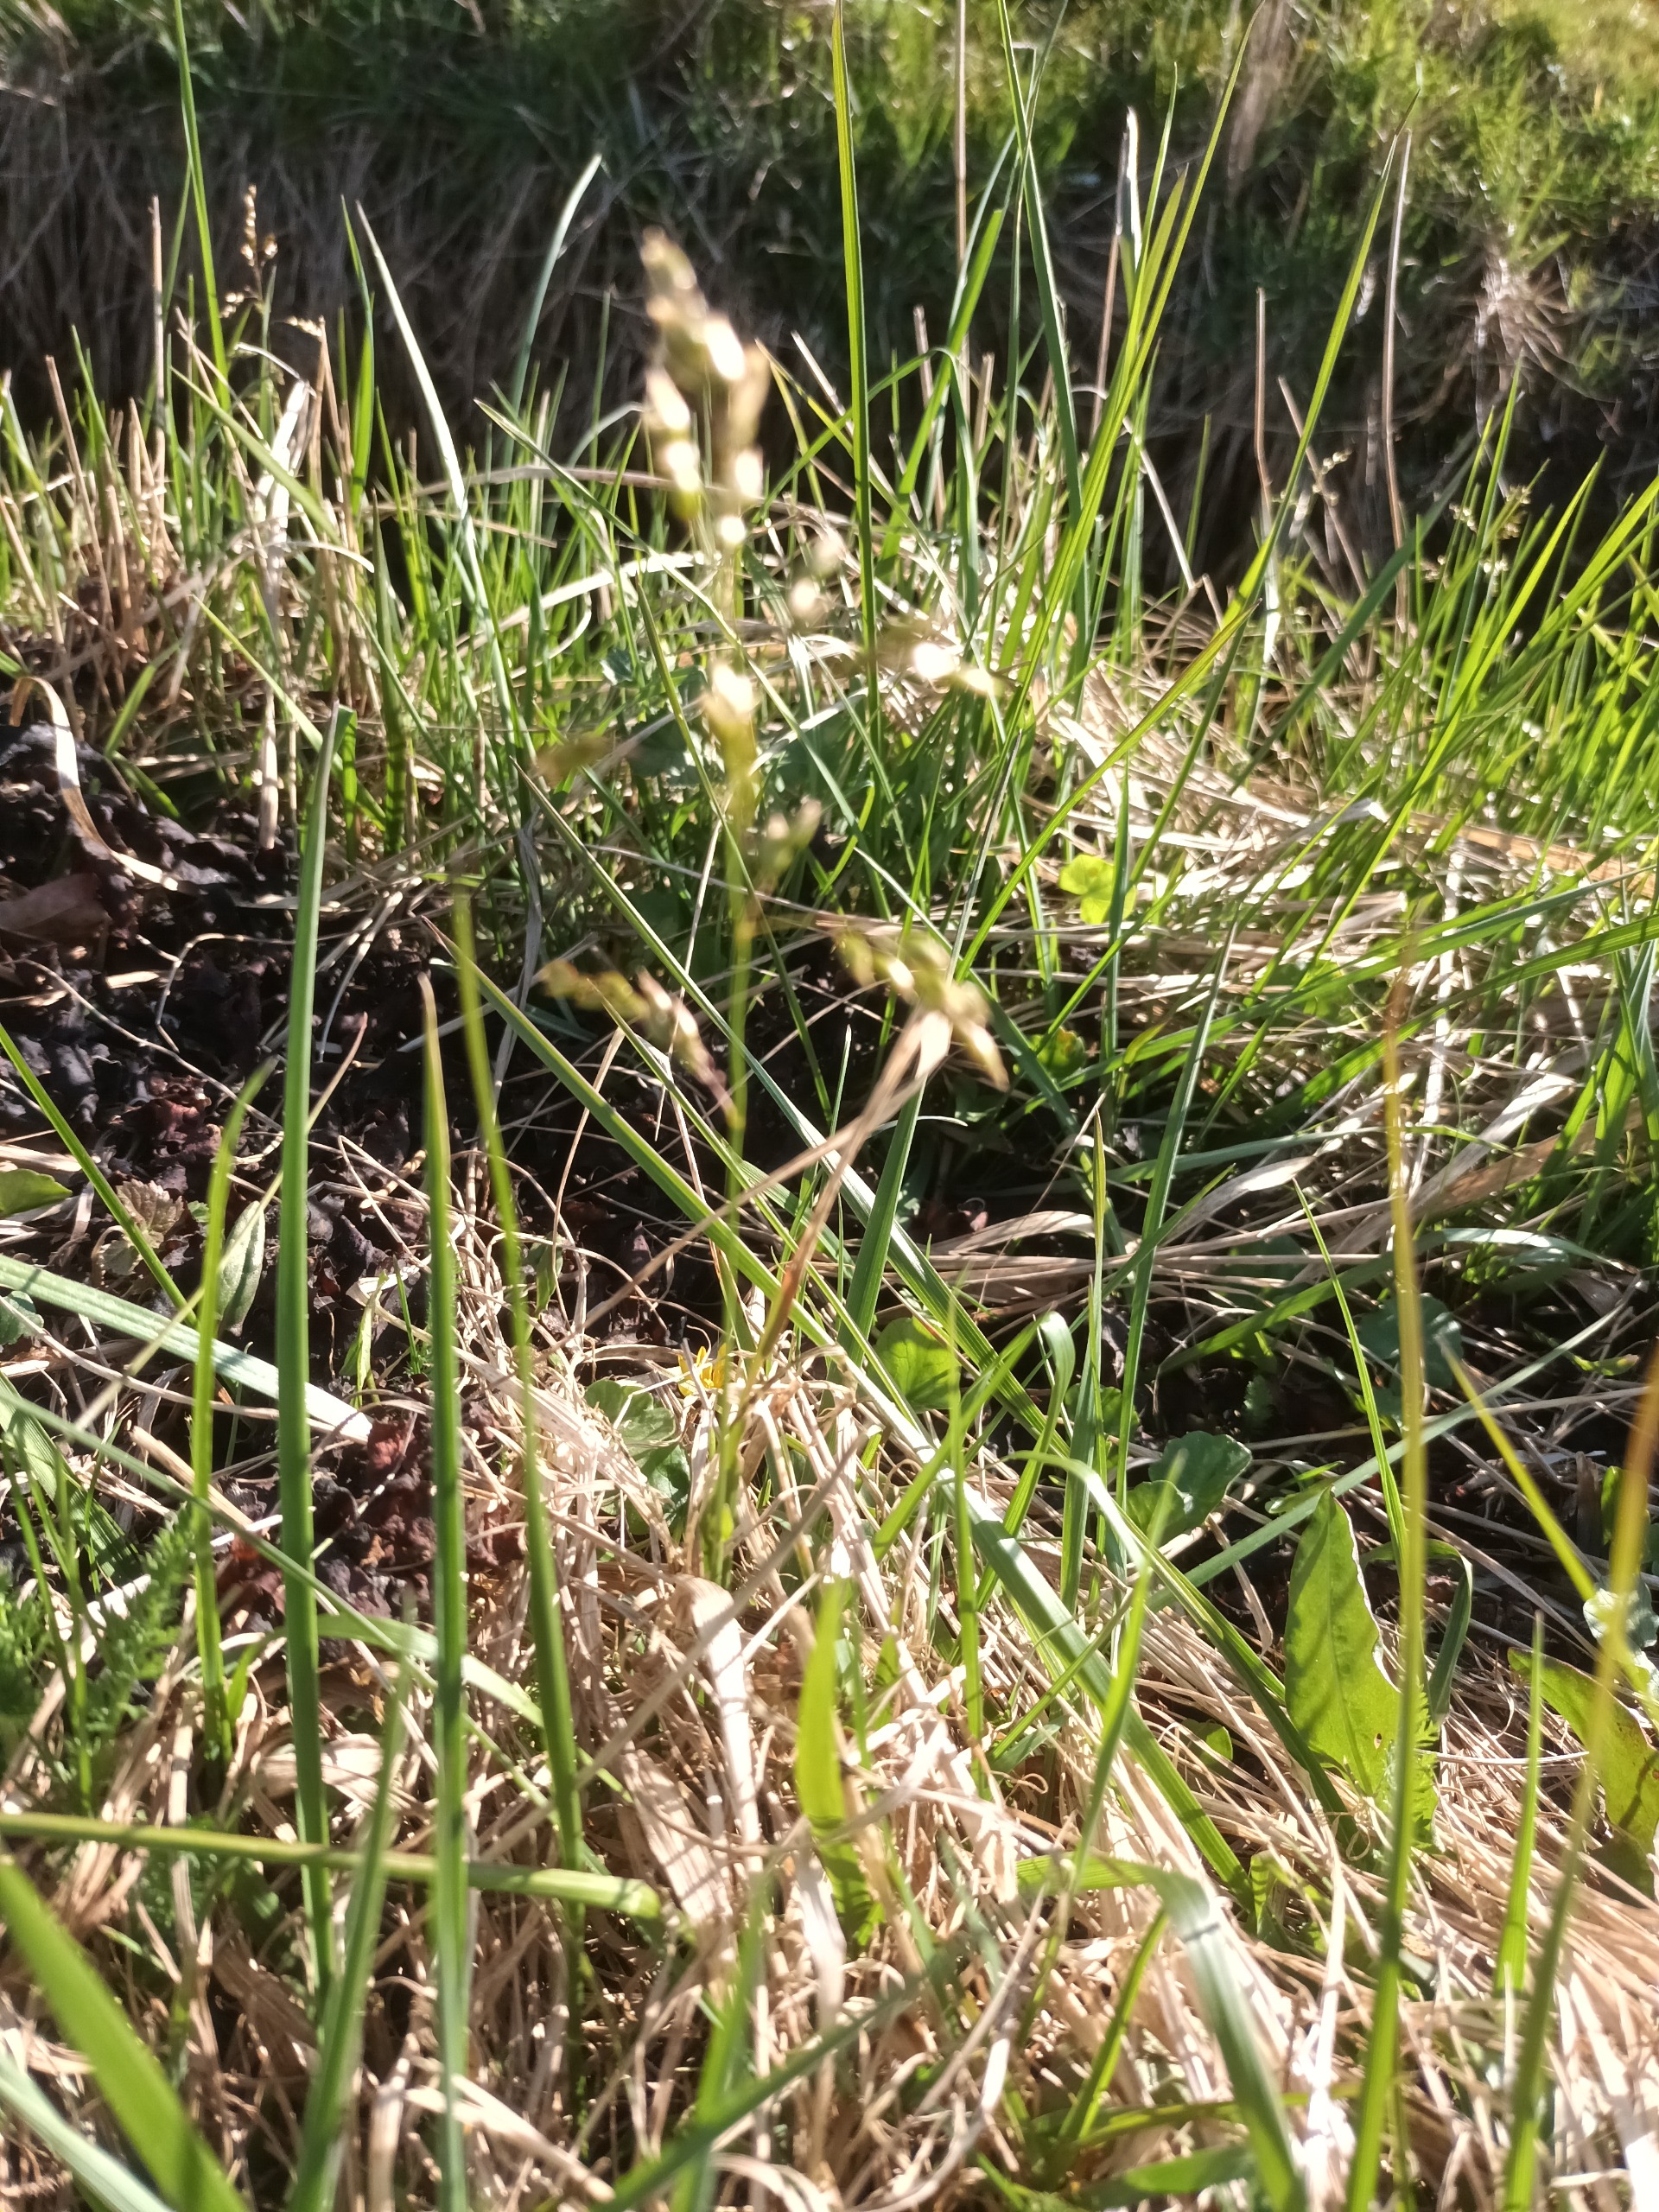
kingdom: Plantae
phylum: Tracheophyta
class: Liliopsida
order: Poales
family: Poaceae
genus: Anthoxanthum
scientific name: Anthoxanthum nitens
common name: Festgræs
